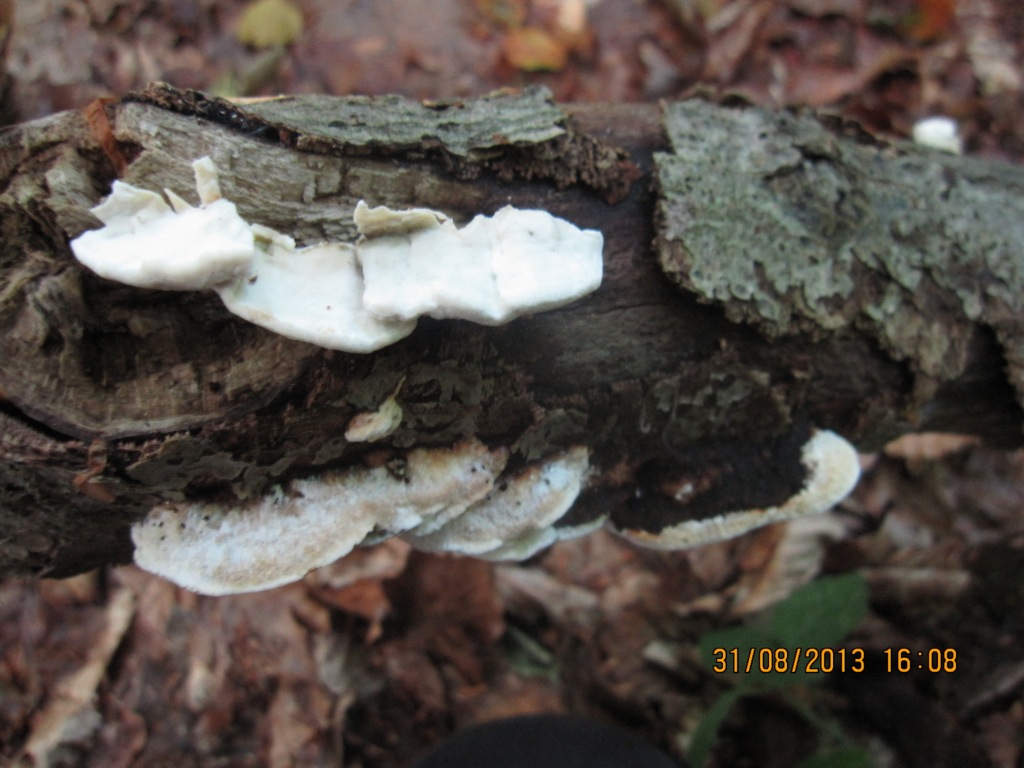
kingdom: Fungi
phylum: Basidiomycota
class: Agaricomycetes
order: Polyporales
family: Incrustoporiaceae
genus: Skeletocutis
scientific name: Skeletocutis nemoralis
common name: stor krystalporesvamp
